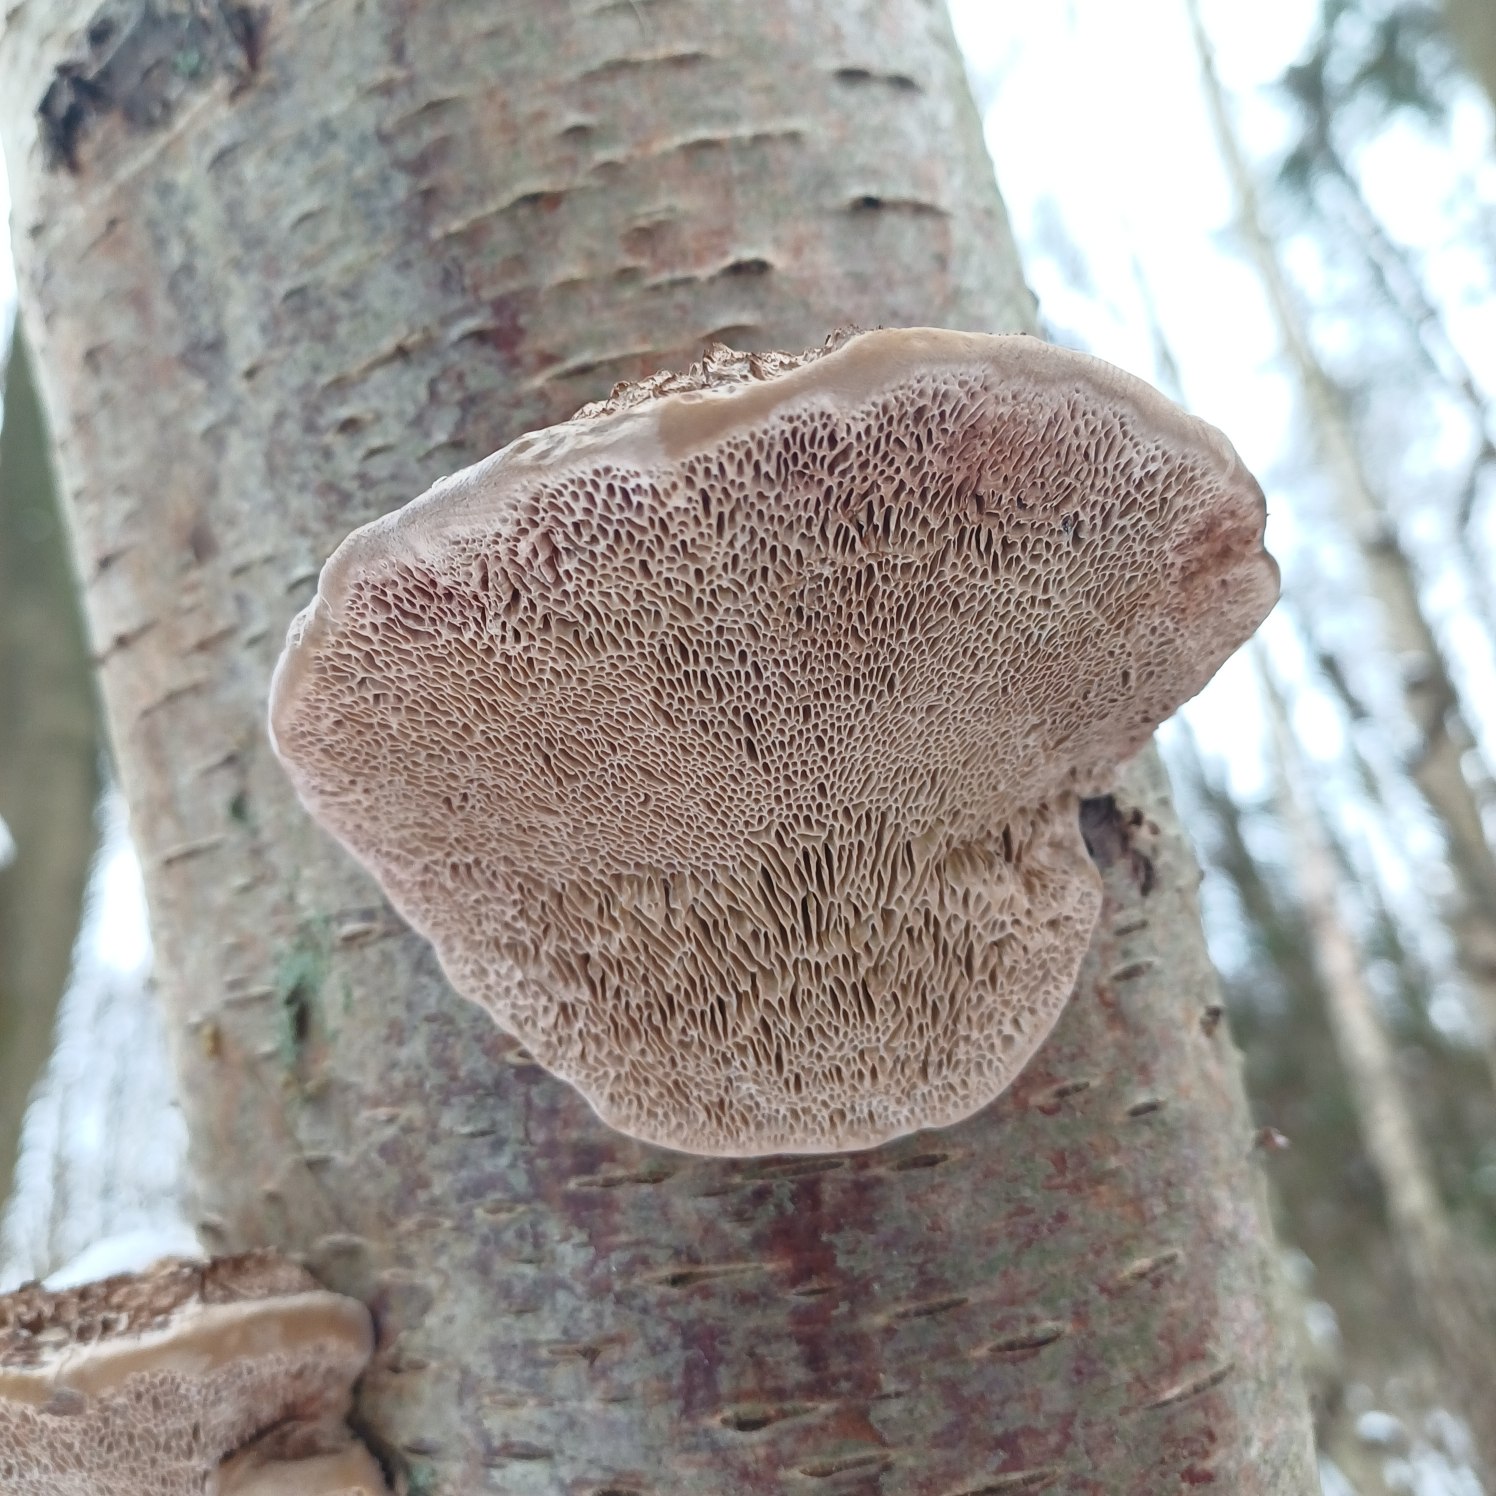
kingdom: Fungi
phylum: Basidiomycota
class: Agaricomycetes
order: Polyporales
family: Polyporaceae
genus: Daedaleopsis
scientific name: Daedaleopsis confragosa
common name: Rødmende læderporesvamp
